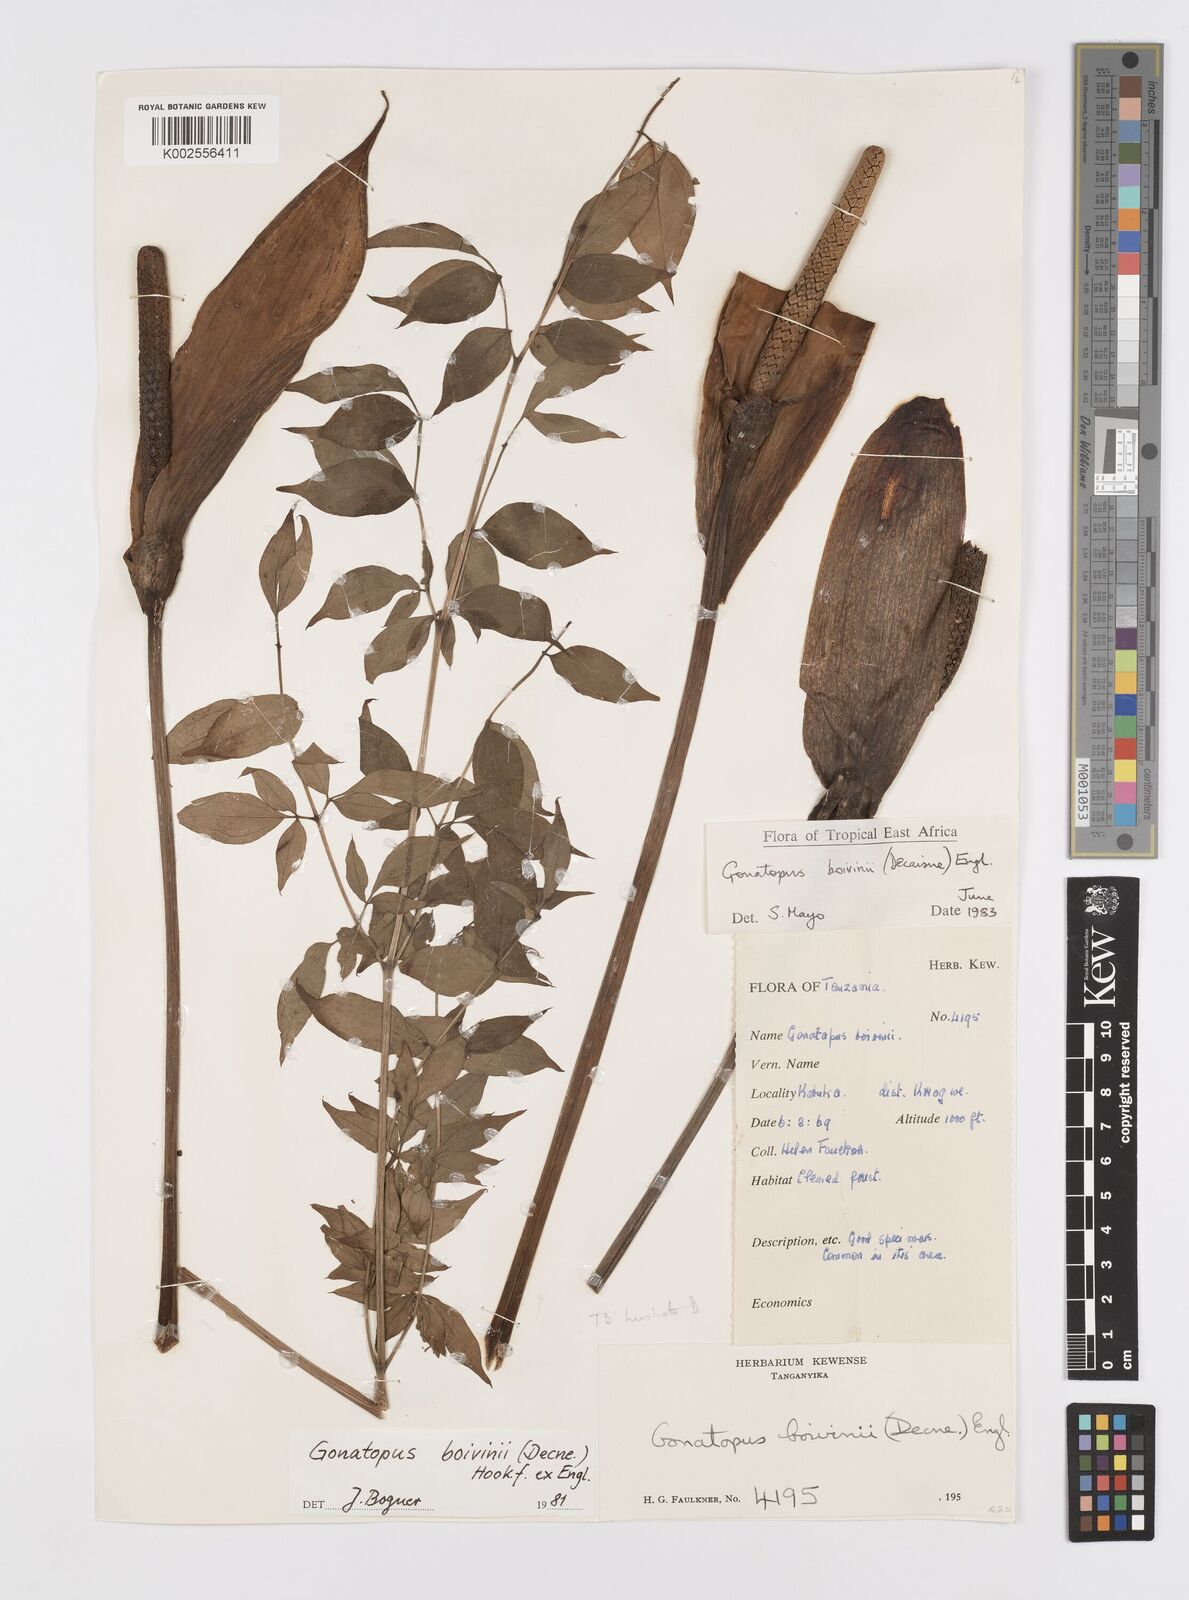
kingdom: Plantae
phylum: Tracheophyta
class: Liliopsida
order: Alismatales
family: Araceae
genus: Gonatopus
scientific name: Gonatopus boivinii
